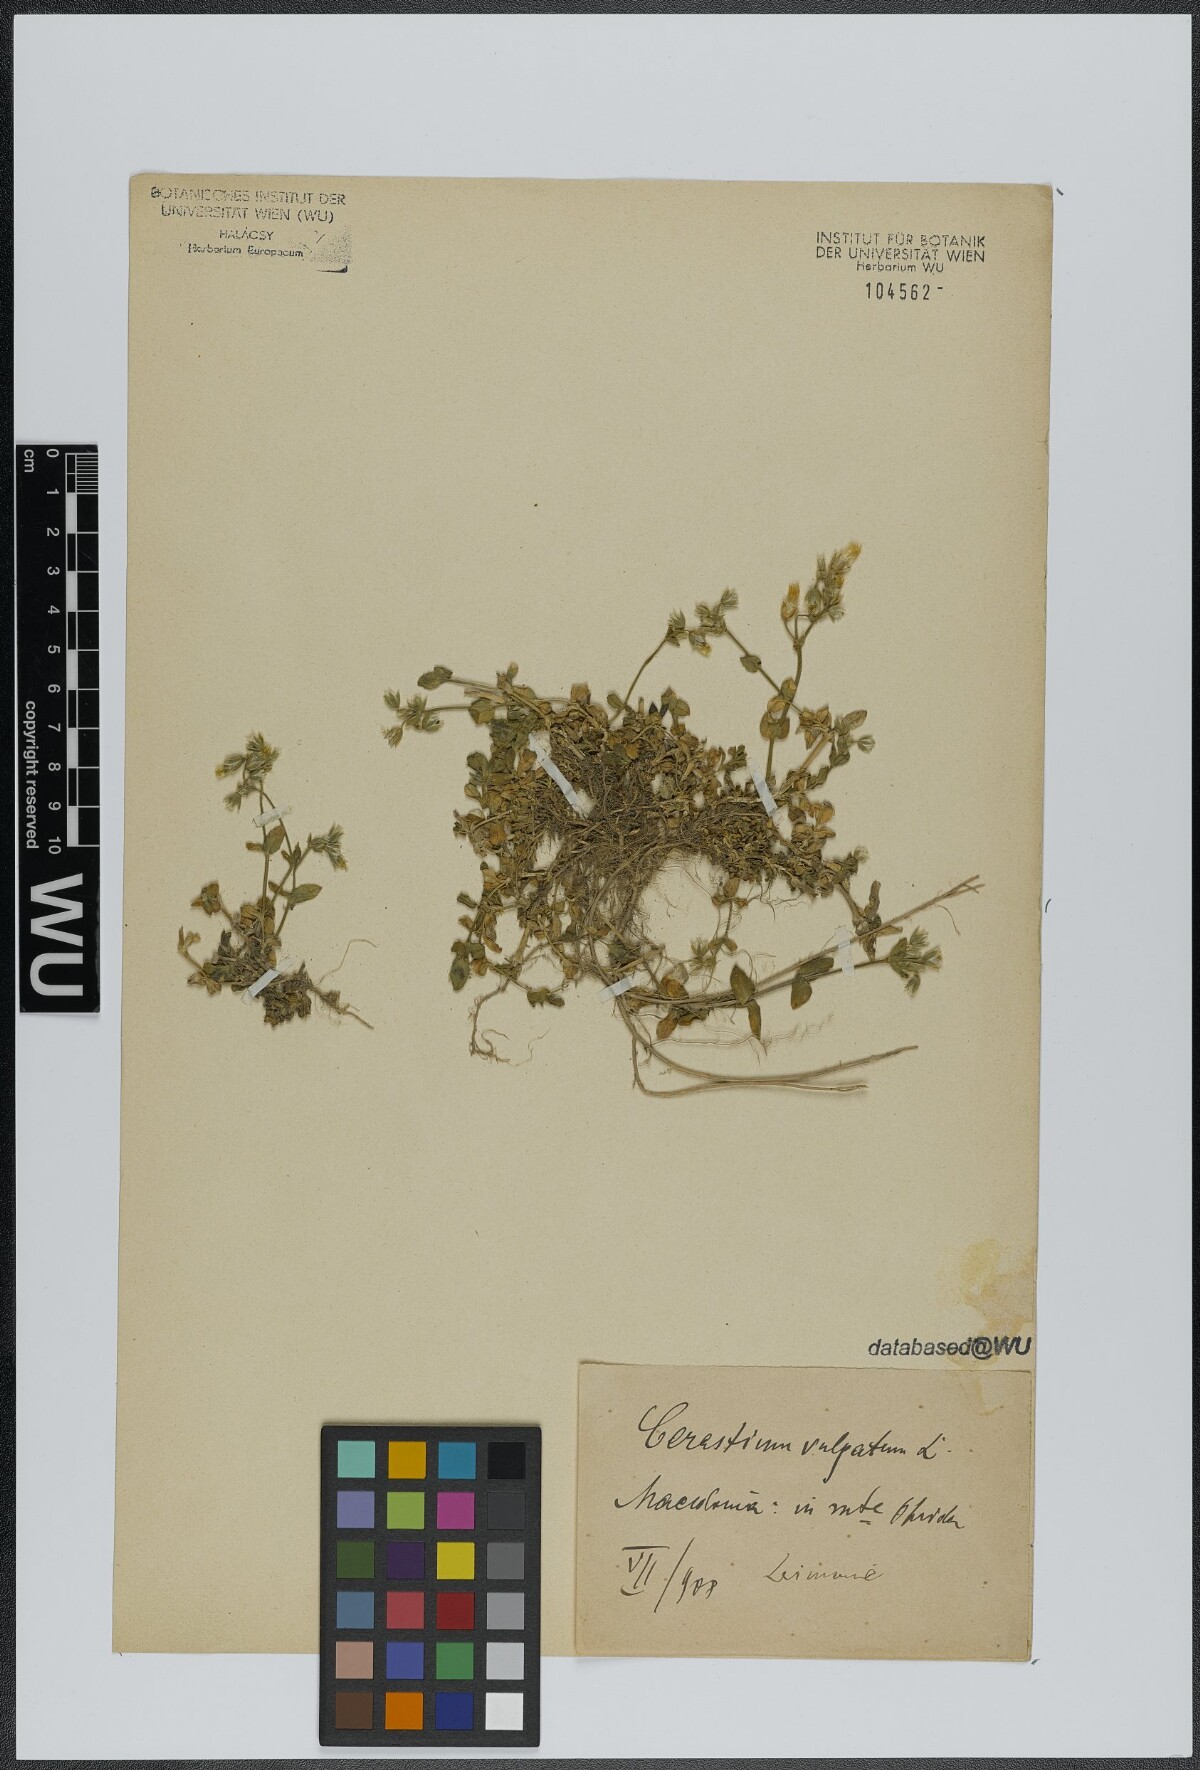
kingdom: Plantae
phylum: Tracheophyta
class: Magnoliopsida
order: Caryophyllales
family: Caryophyllaceae
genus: Cerastium
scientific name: Cerastium
